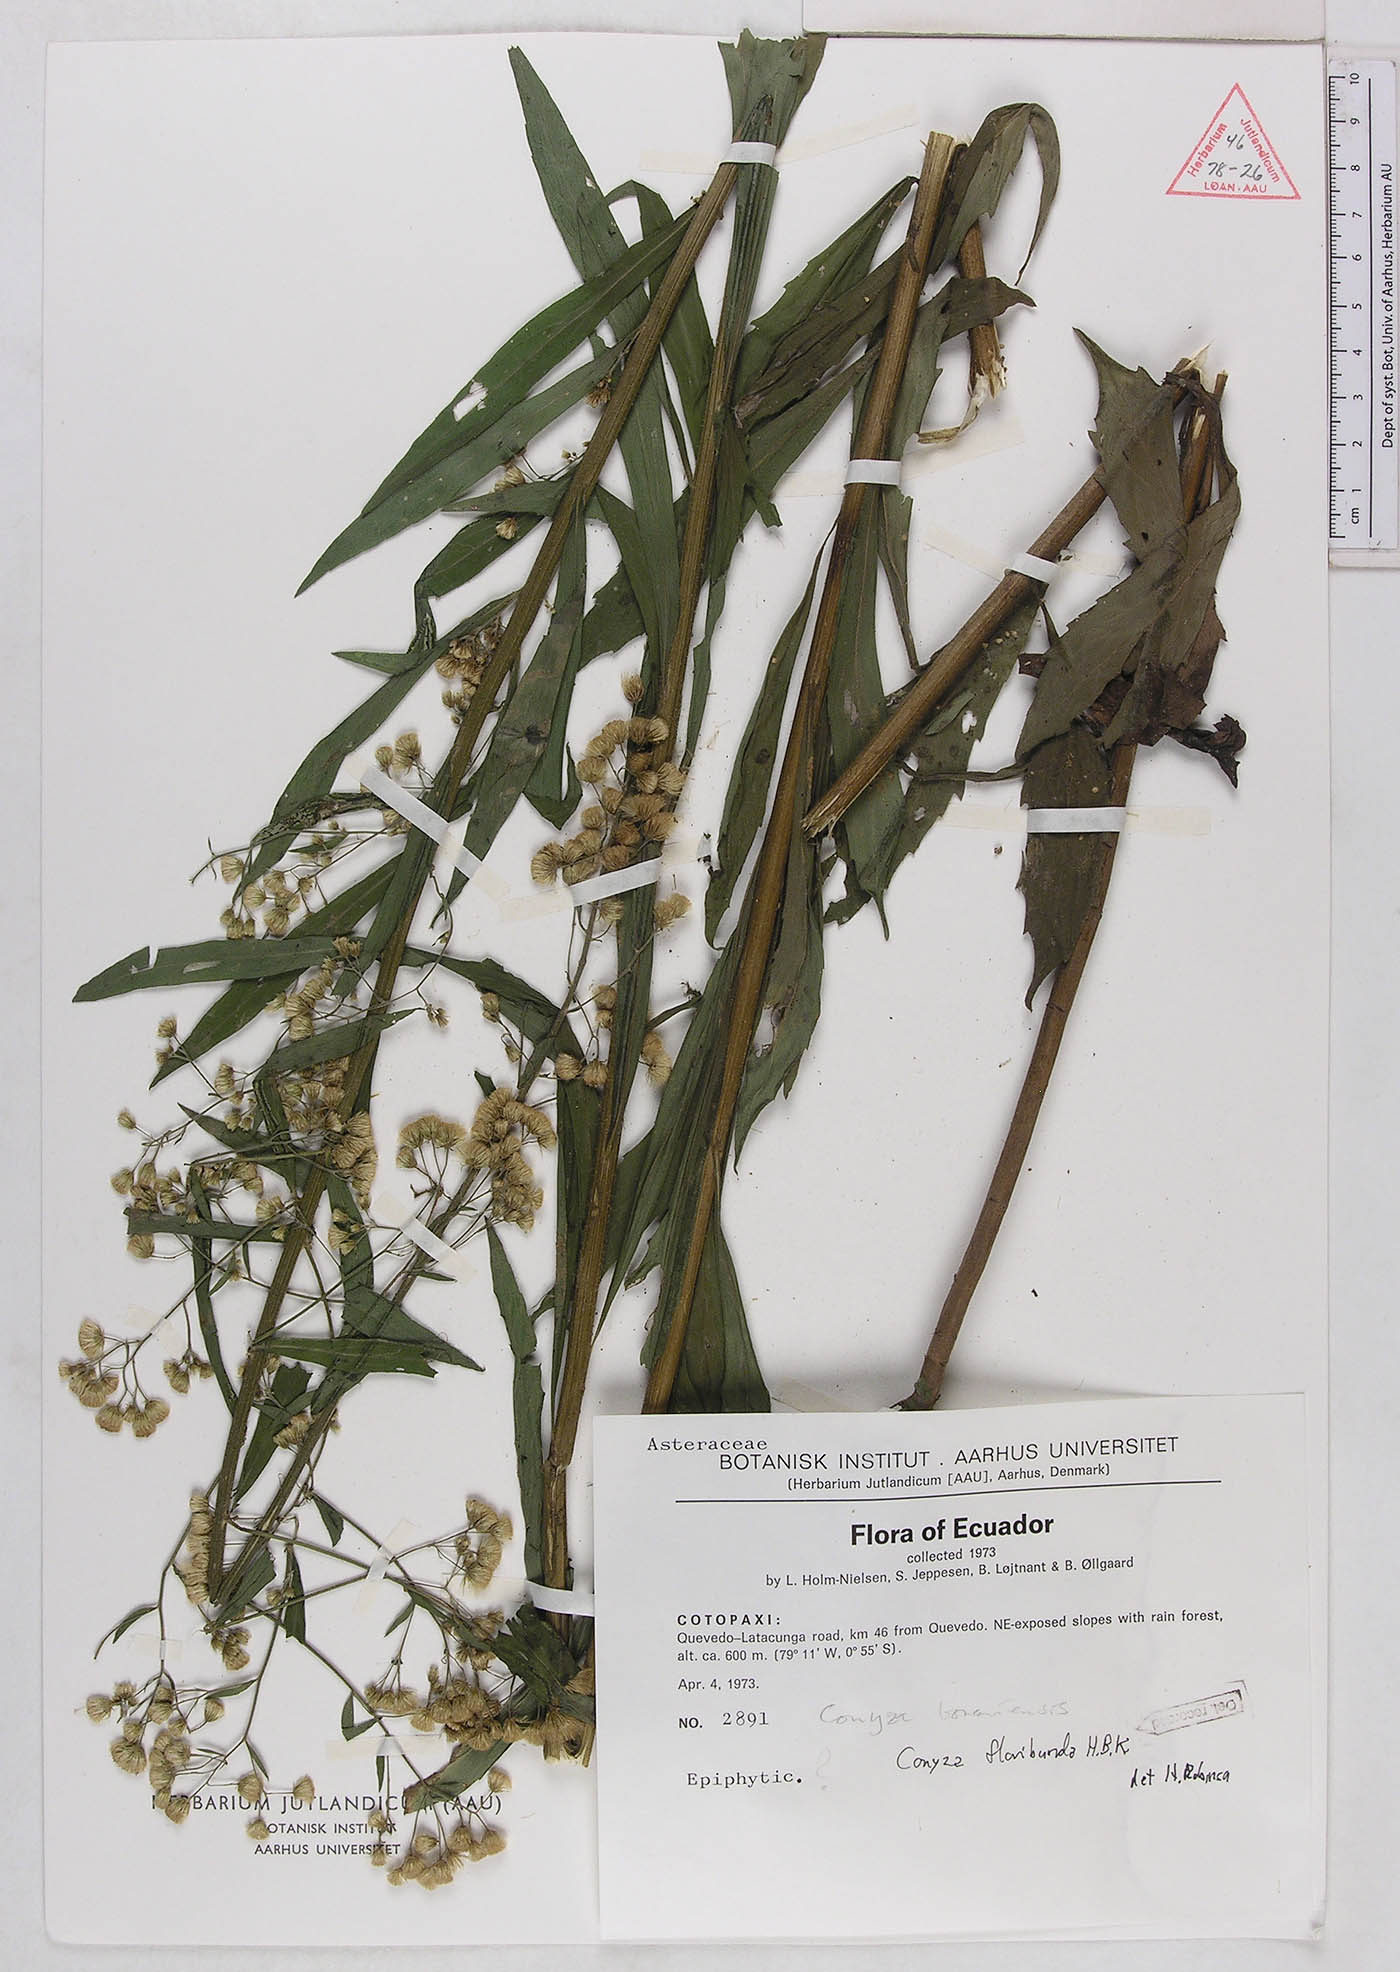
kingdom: Plantae
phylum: Tracheophyta
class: Magnoliopsida
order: Asterales
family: Asteraceae
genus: Erigeron
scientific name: Erigeron floribundus
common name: Bilbao fleabane
